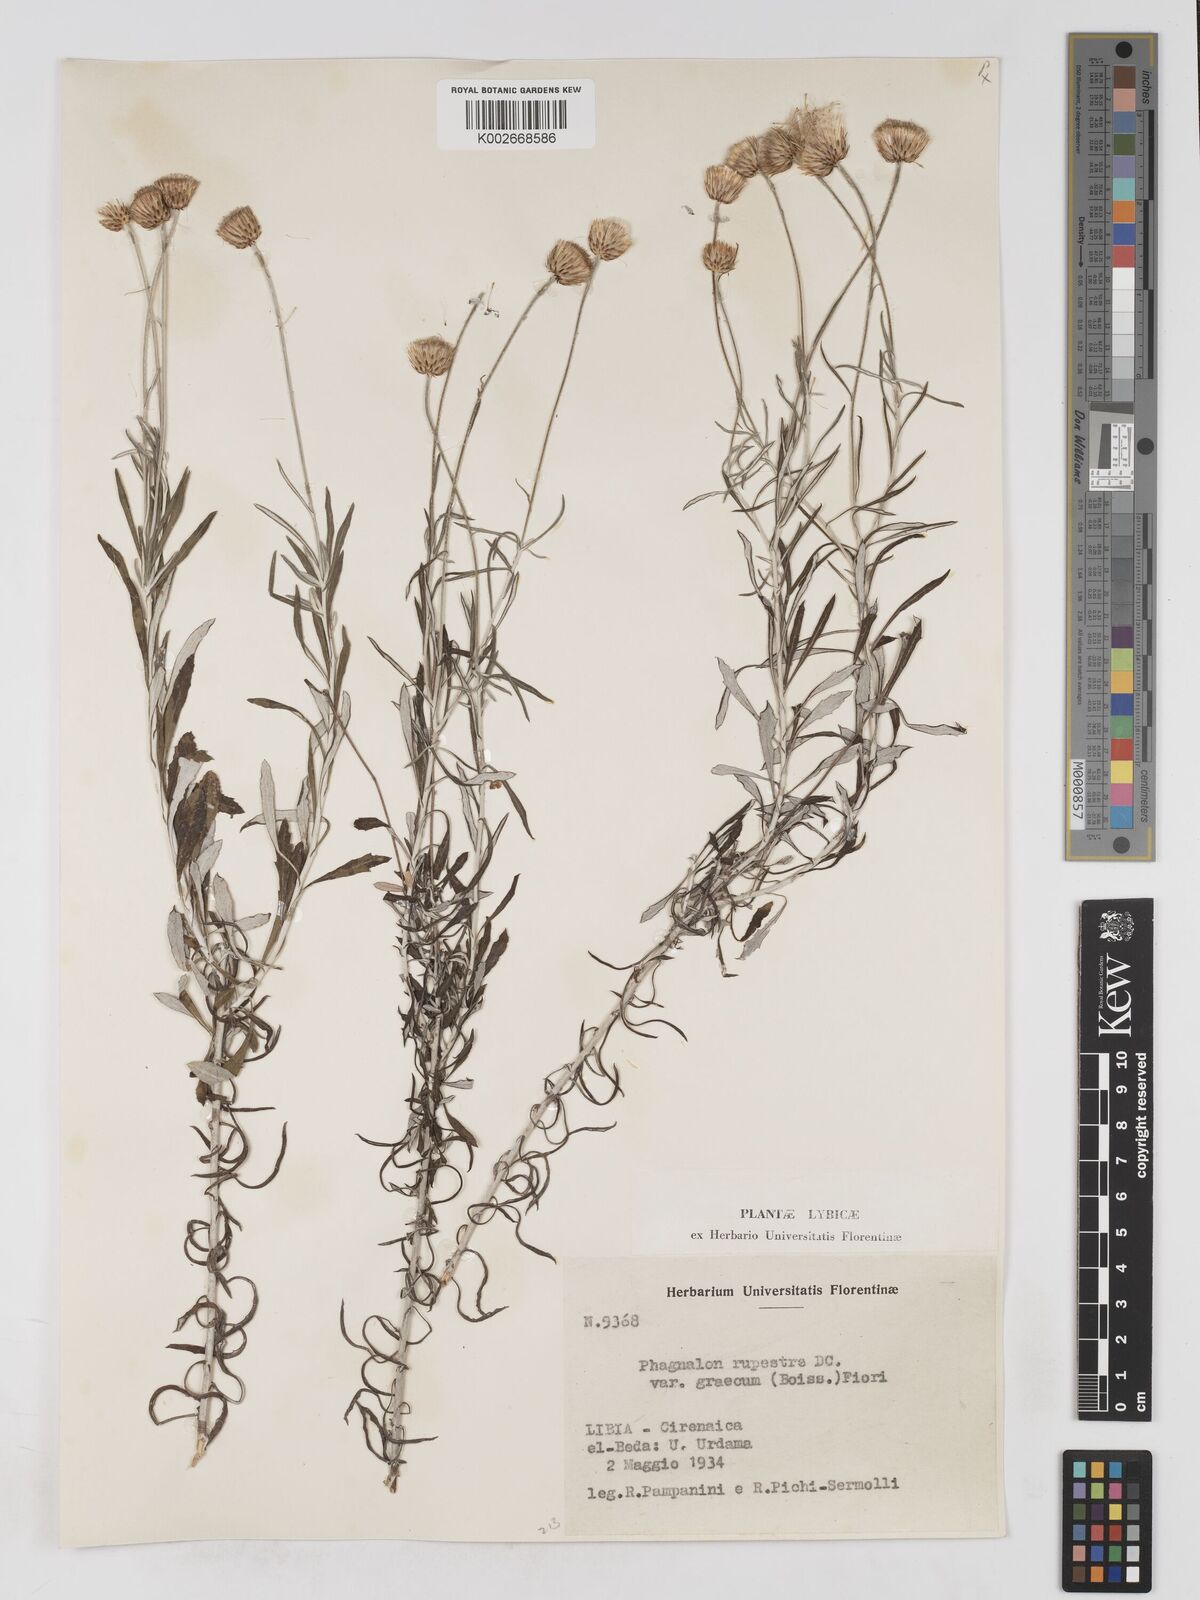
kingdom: Plantae
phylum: Tracheophyta
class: Magnoliopsida
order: Asterales
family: Asteraceae
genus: Phagnalon
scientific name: Phagnalon rupestre
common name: Rock phagnalon
